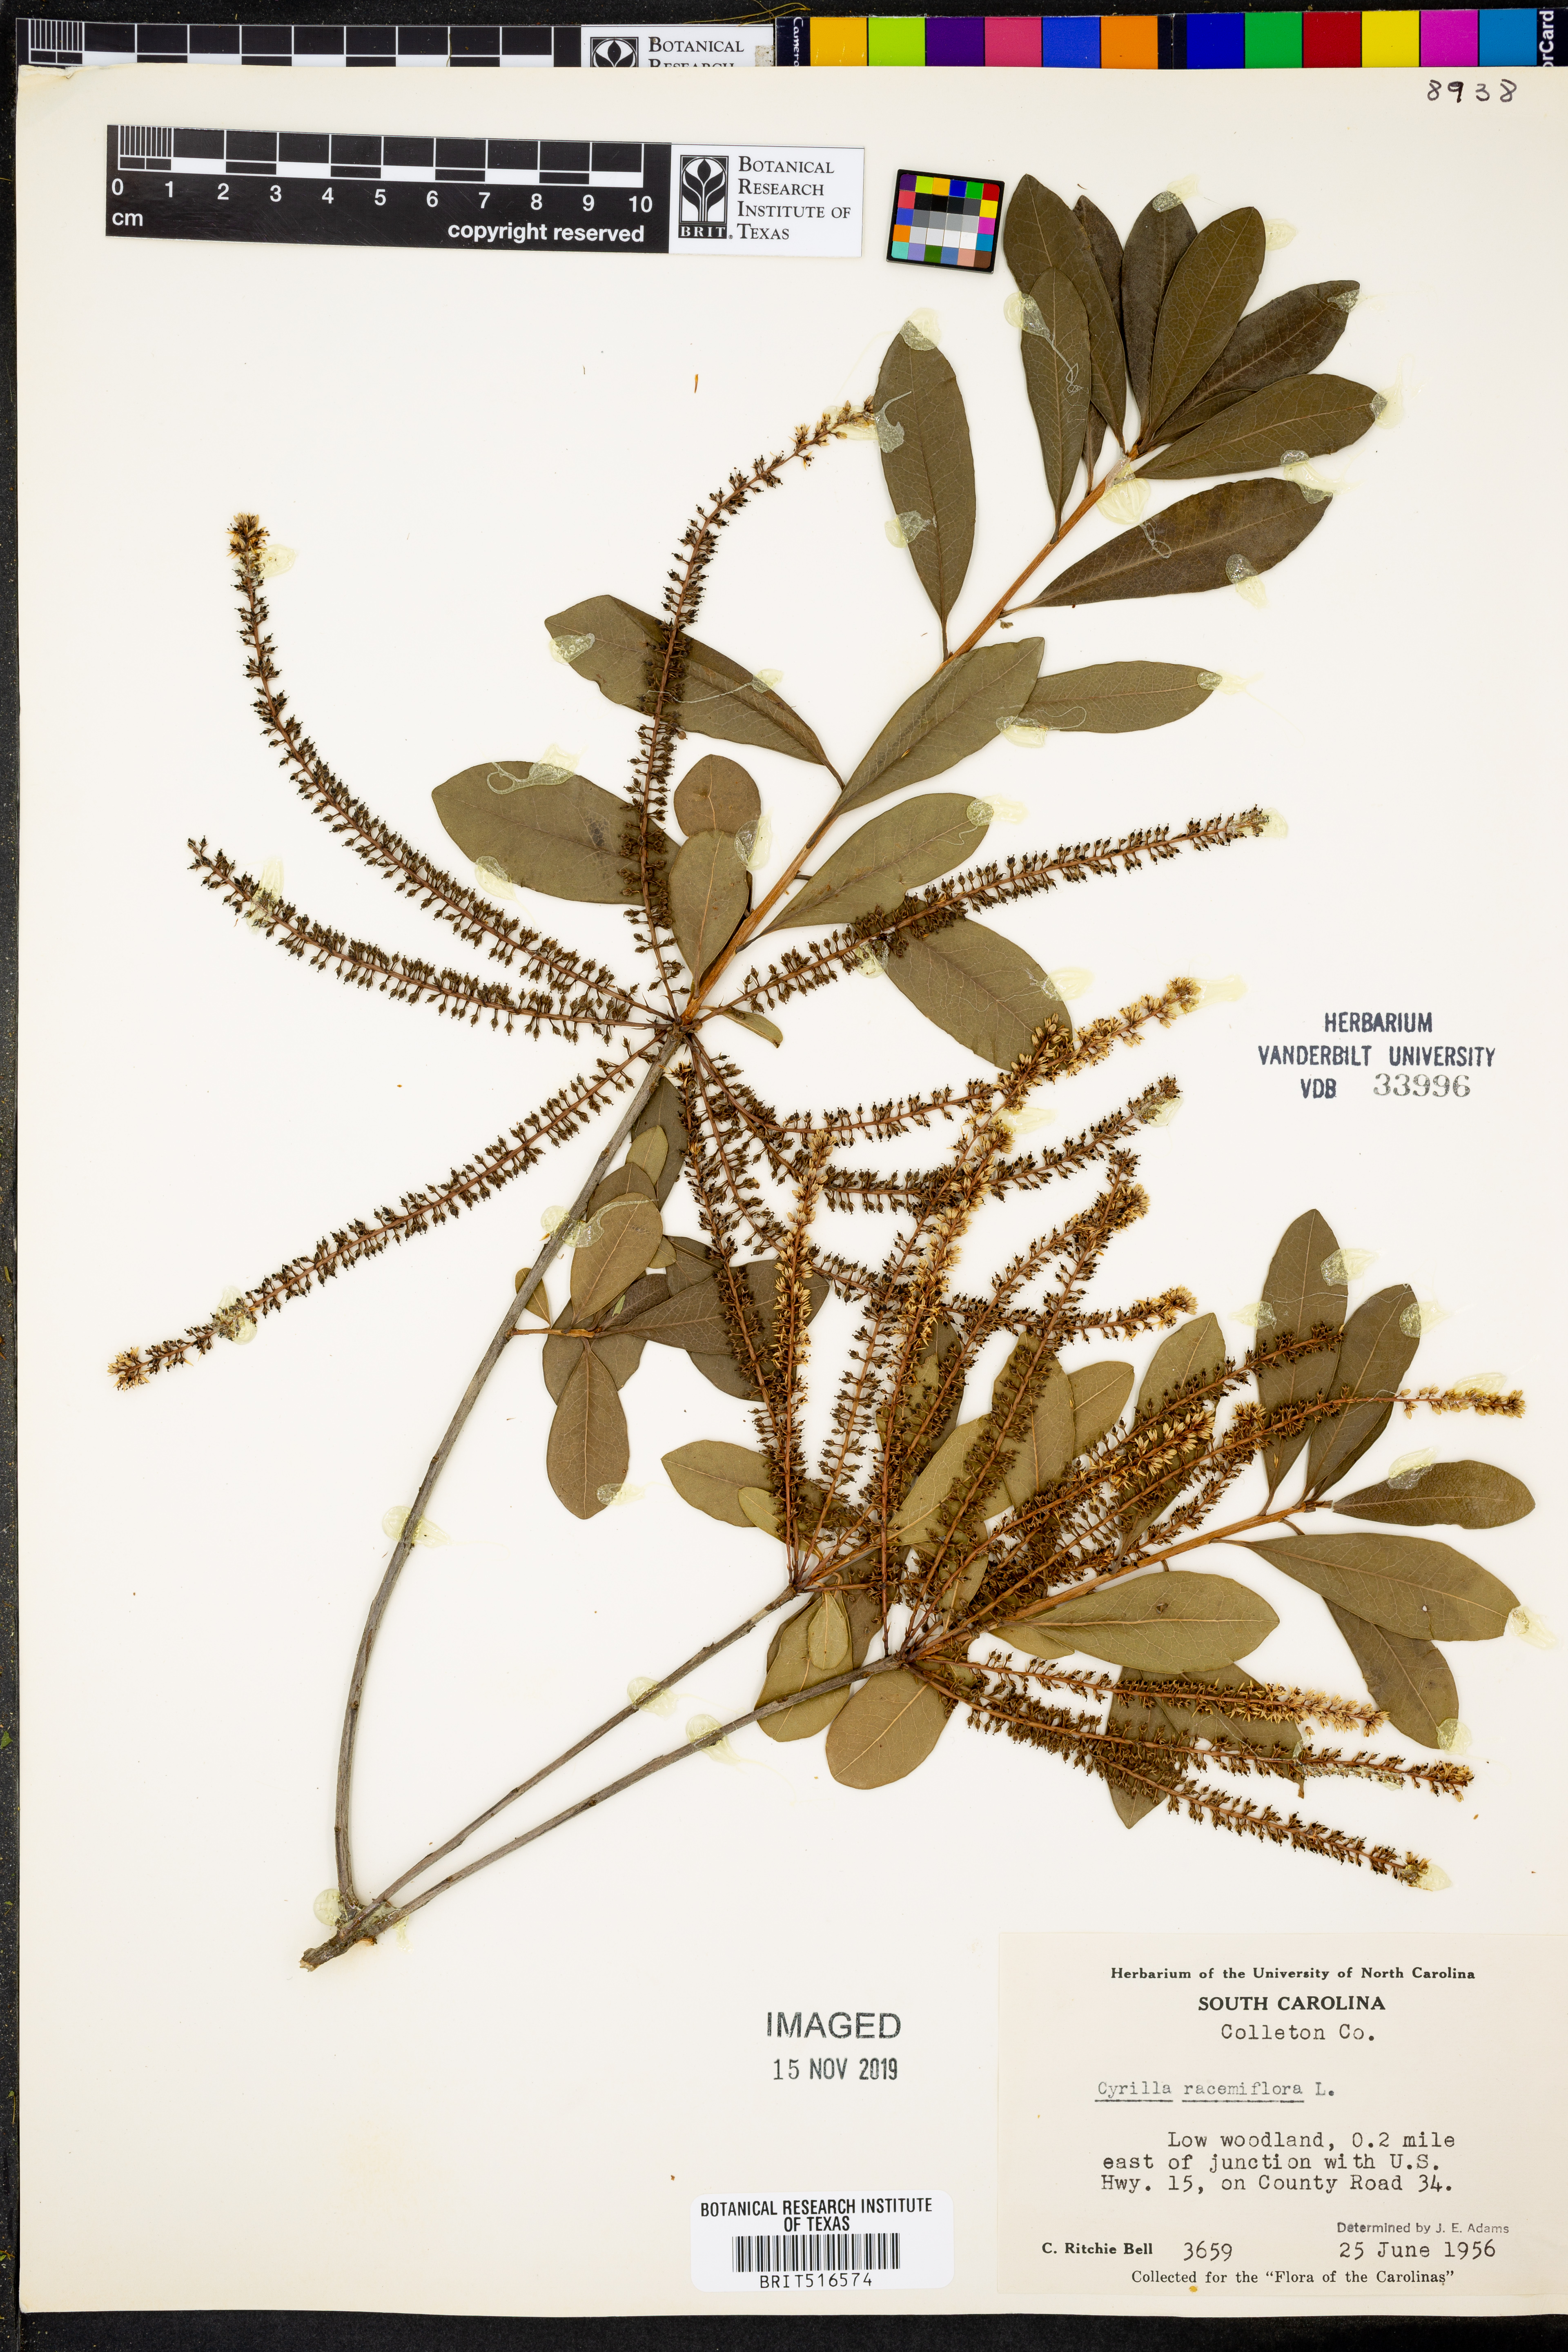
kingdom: Plantae
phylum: Tracheophyta
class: Magnoliopsida
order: Ericales
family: Cyrillaceae
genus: Cyrilla
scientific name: Cyrilla racemiflora
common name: Black titi
